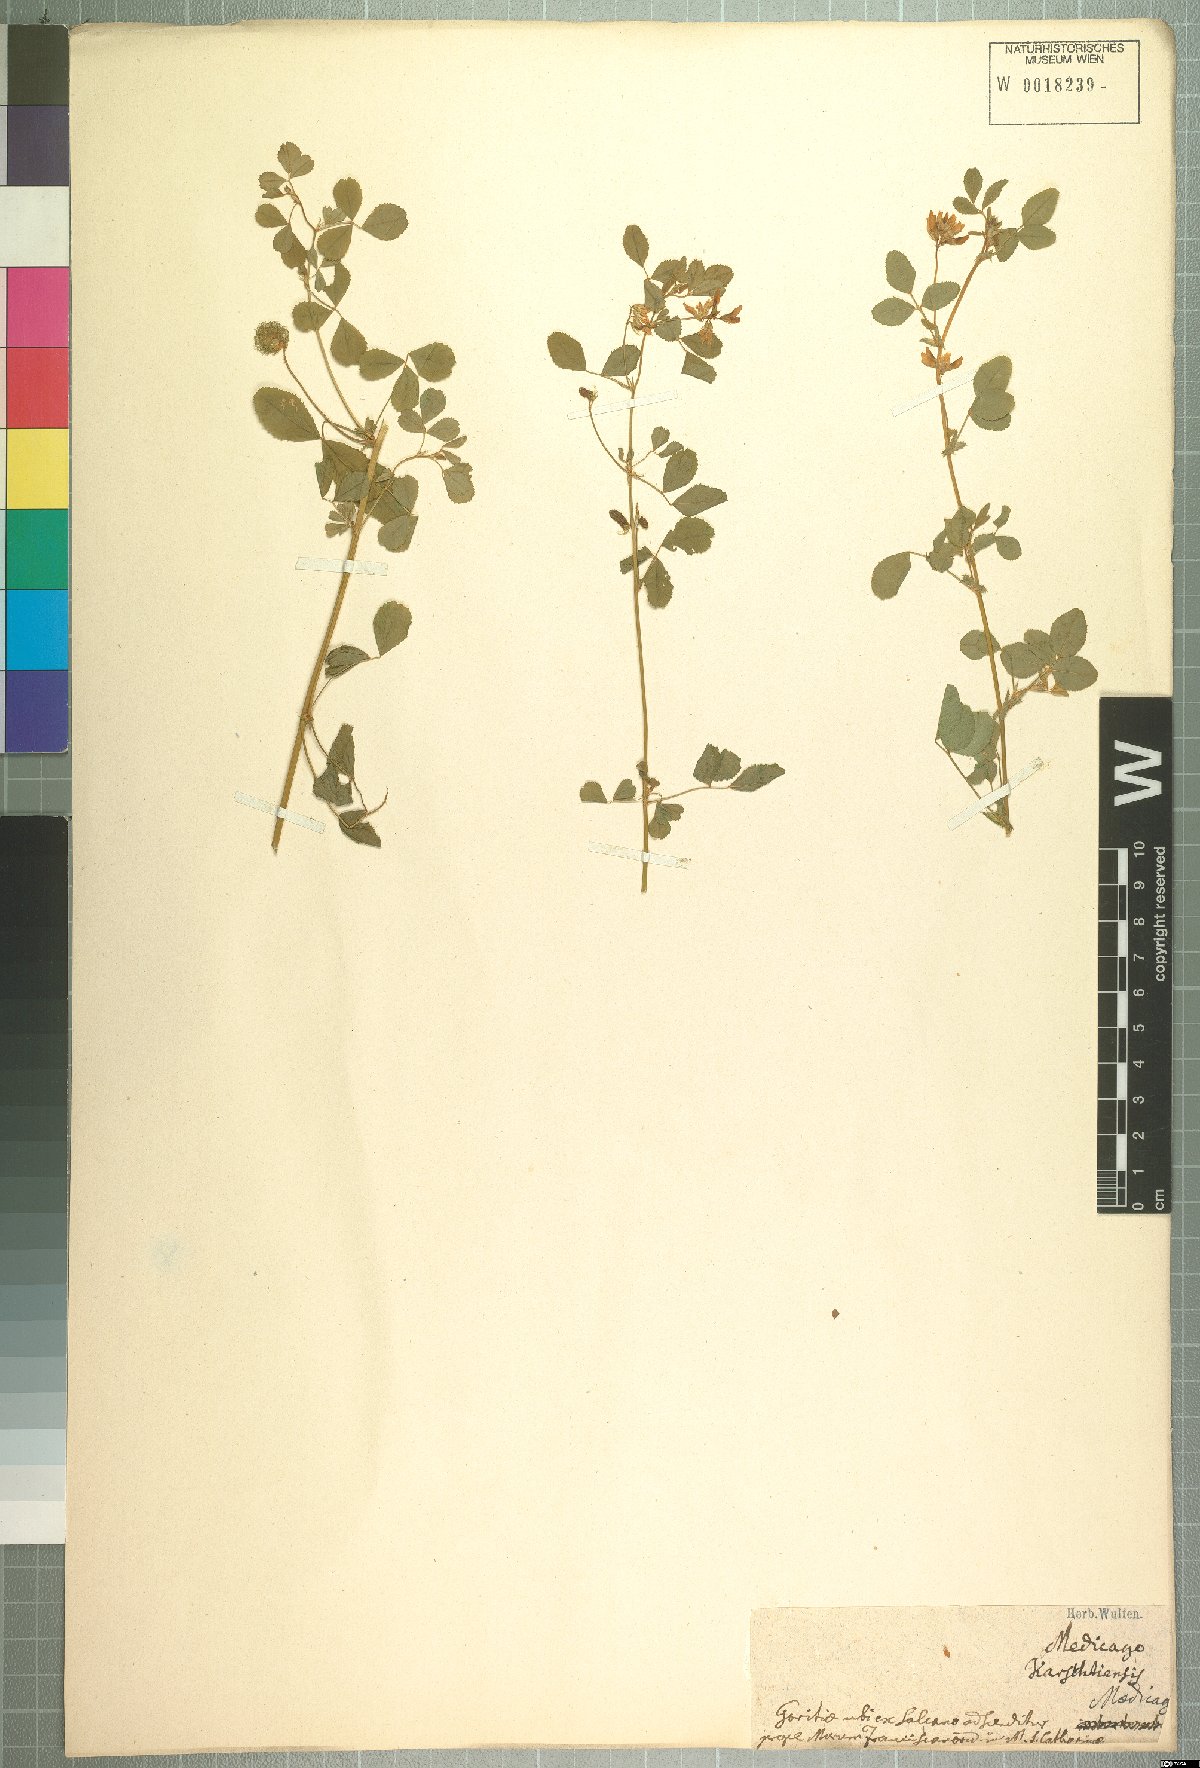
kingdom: Plantae
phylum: Tracheophyta
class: Magnoliopsida
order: Fabales
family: Fabaceae
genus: Medicago
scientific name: Medicago carstiensis
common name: Creeping-rooted medic
